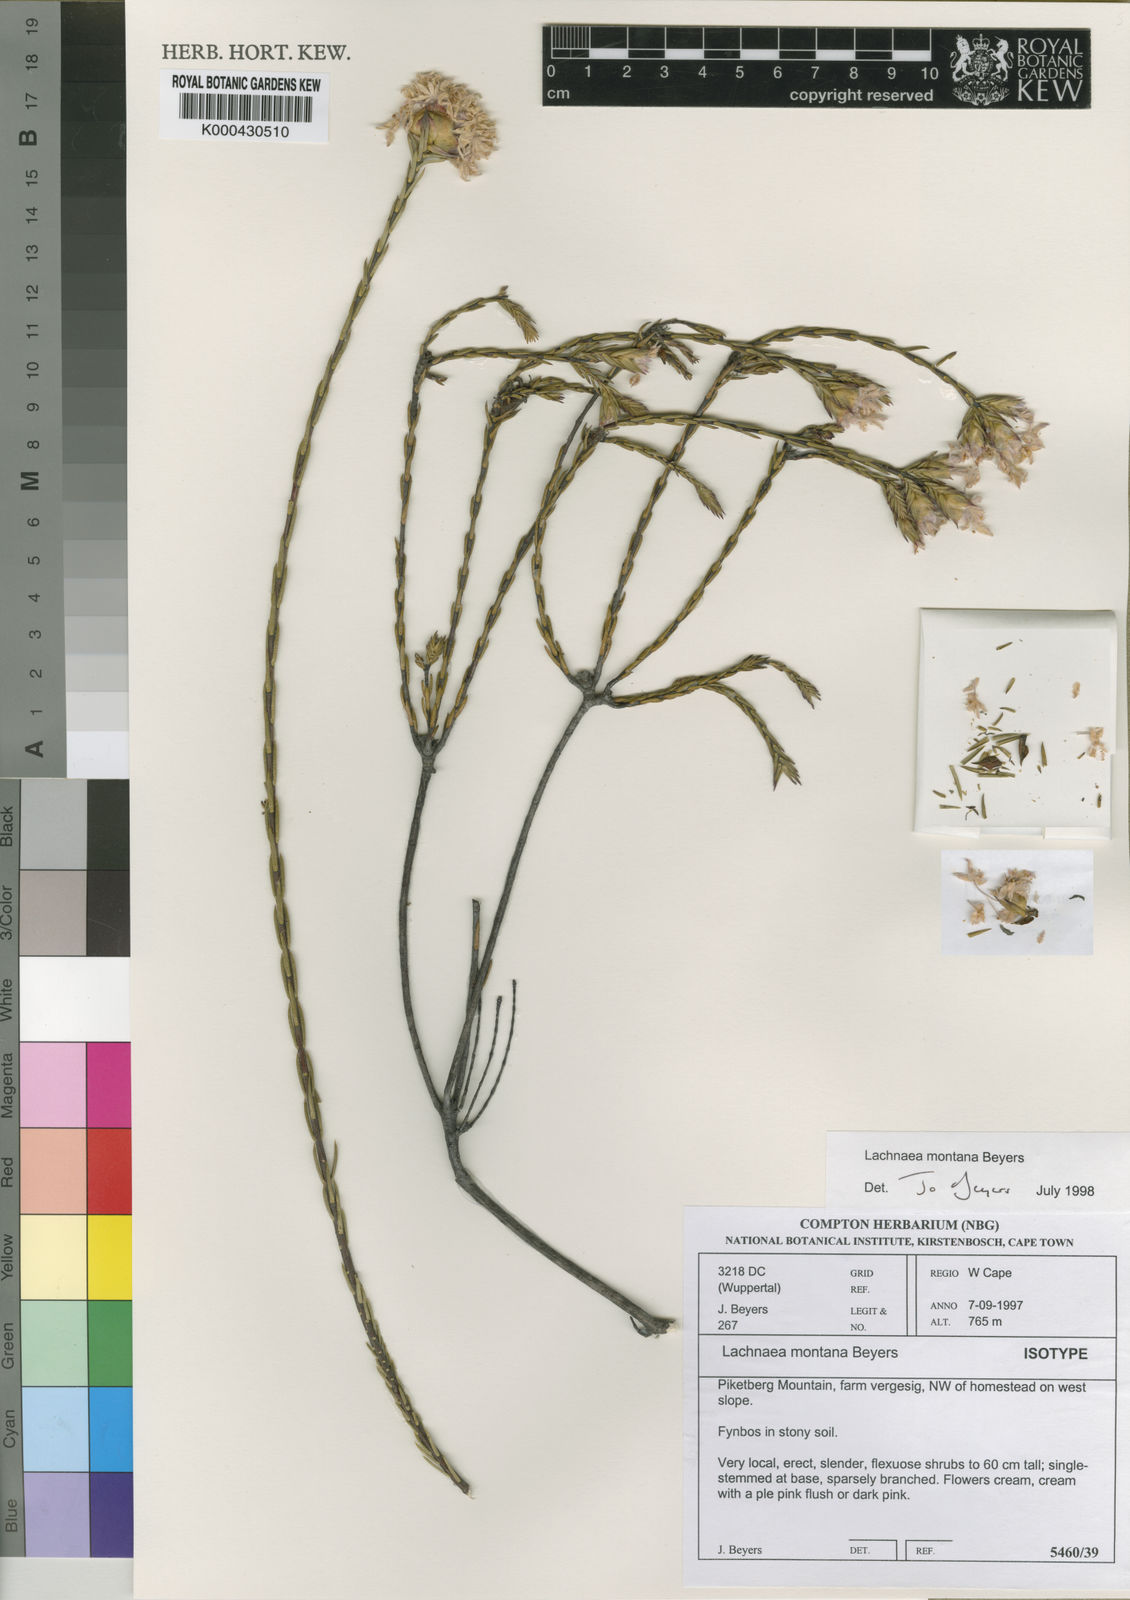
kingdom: Plantae
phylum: Tracheophyta
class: Magnoliopsida
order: Malvales
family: Thymelaeaceae
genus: Lachnaea
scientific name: Lachnaea montana
